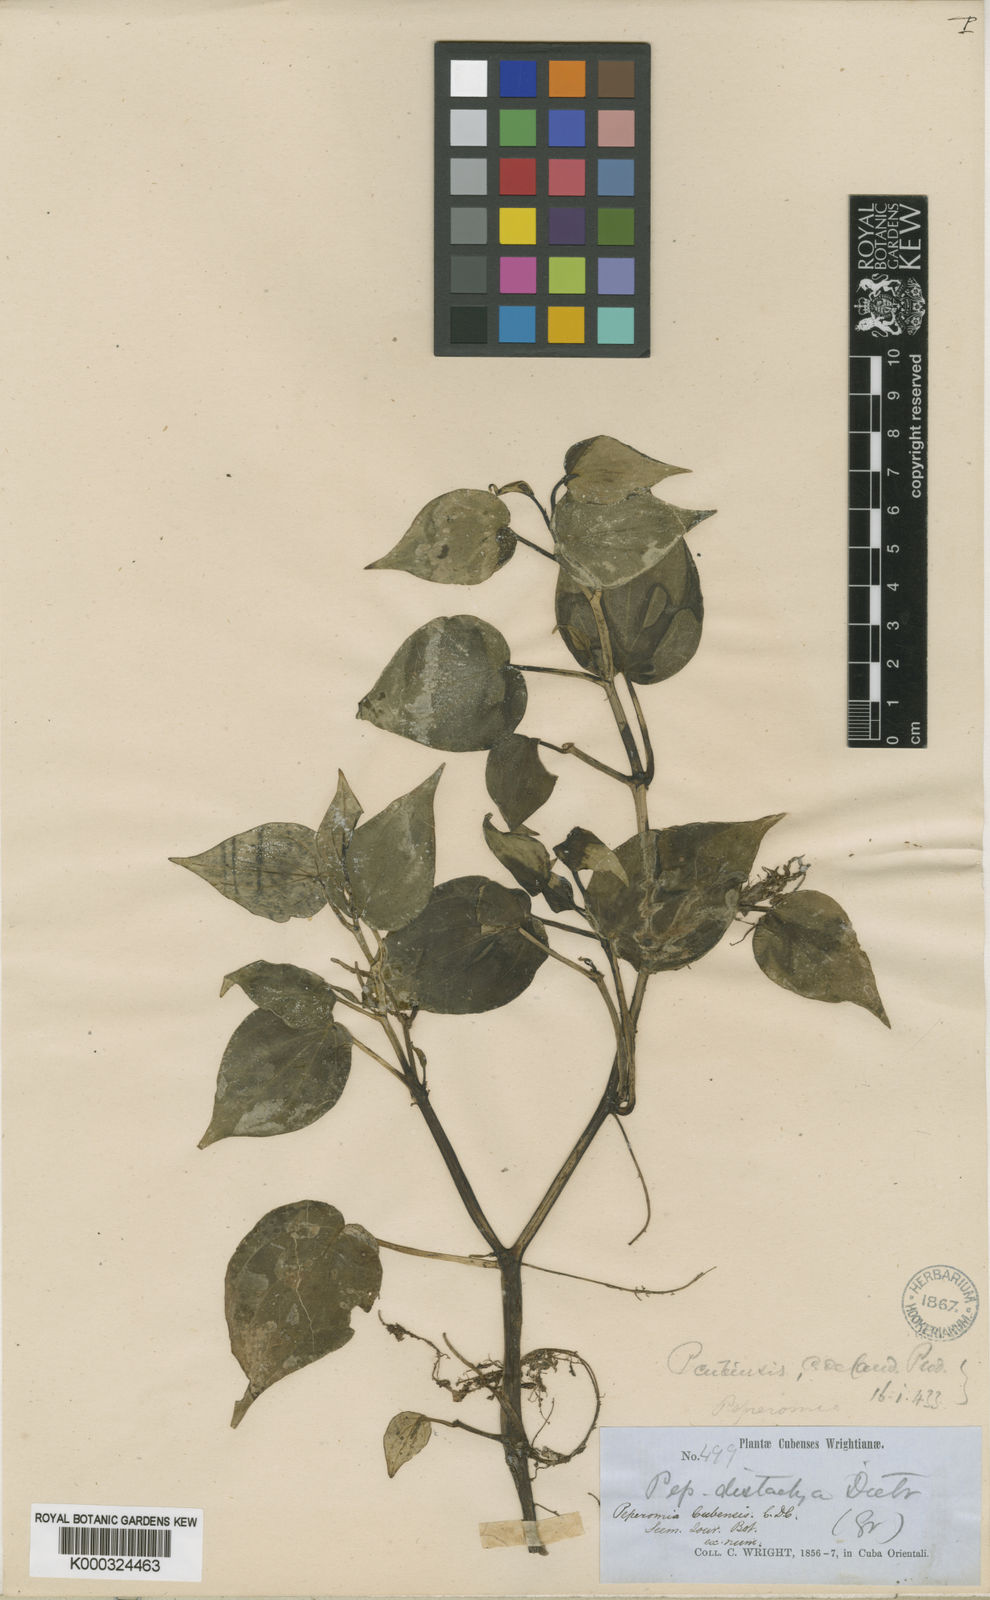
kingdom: Plantae
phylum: Tracheophyta
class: Magnoliopsida
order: Piperales
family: Piperaceae
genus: Peperomia
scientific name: Peperomia cubensis
